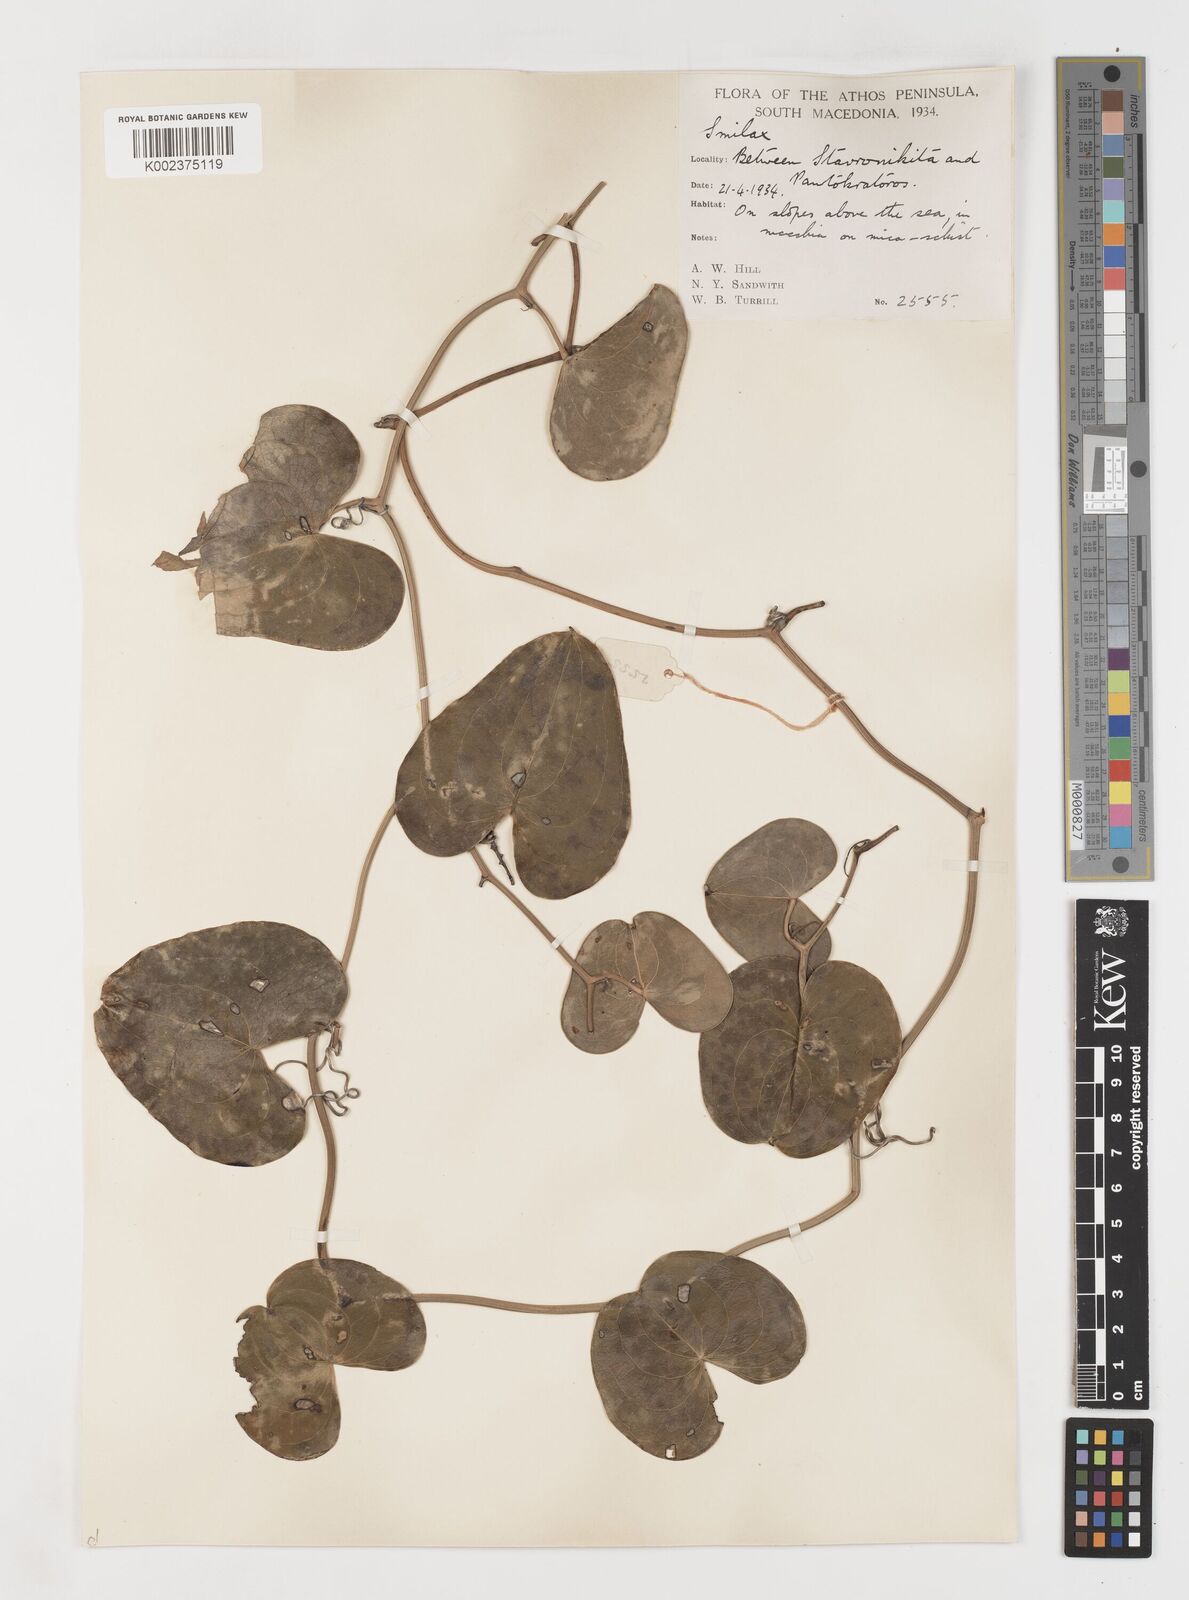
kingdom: Plantae
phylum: Tracheophyta
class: Liliopsida
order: Liliales
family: Smilacaceae
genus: Smilax
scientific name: Smilax aspera
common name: Common smilax
